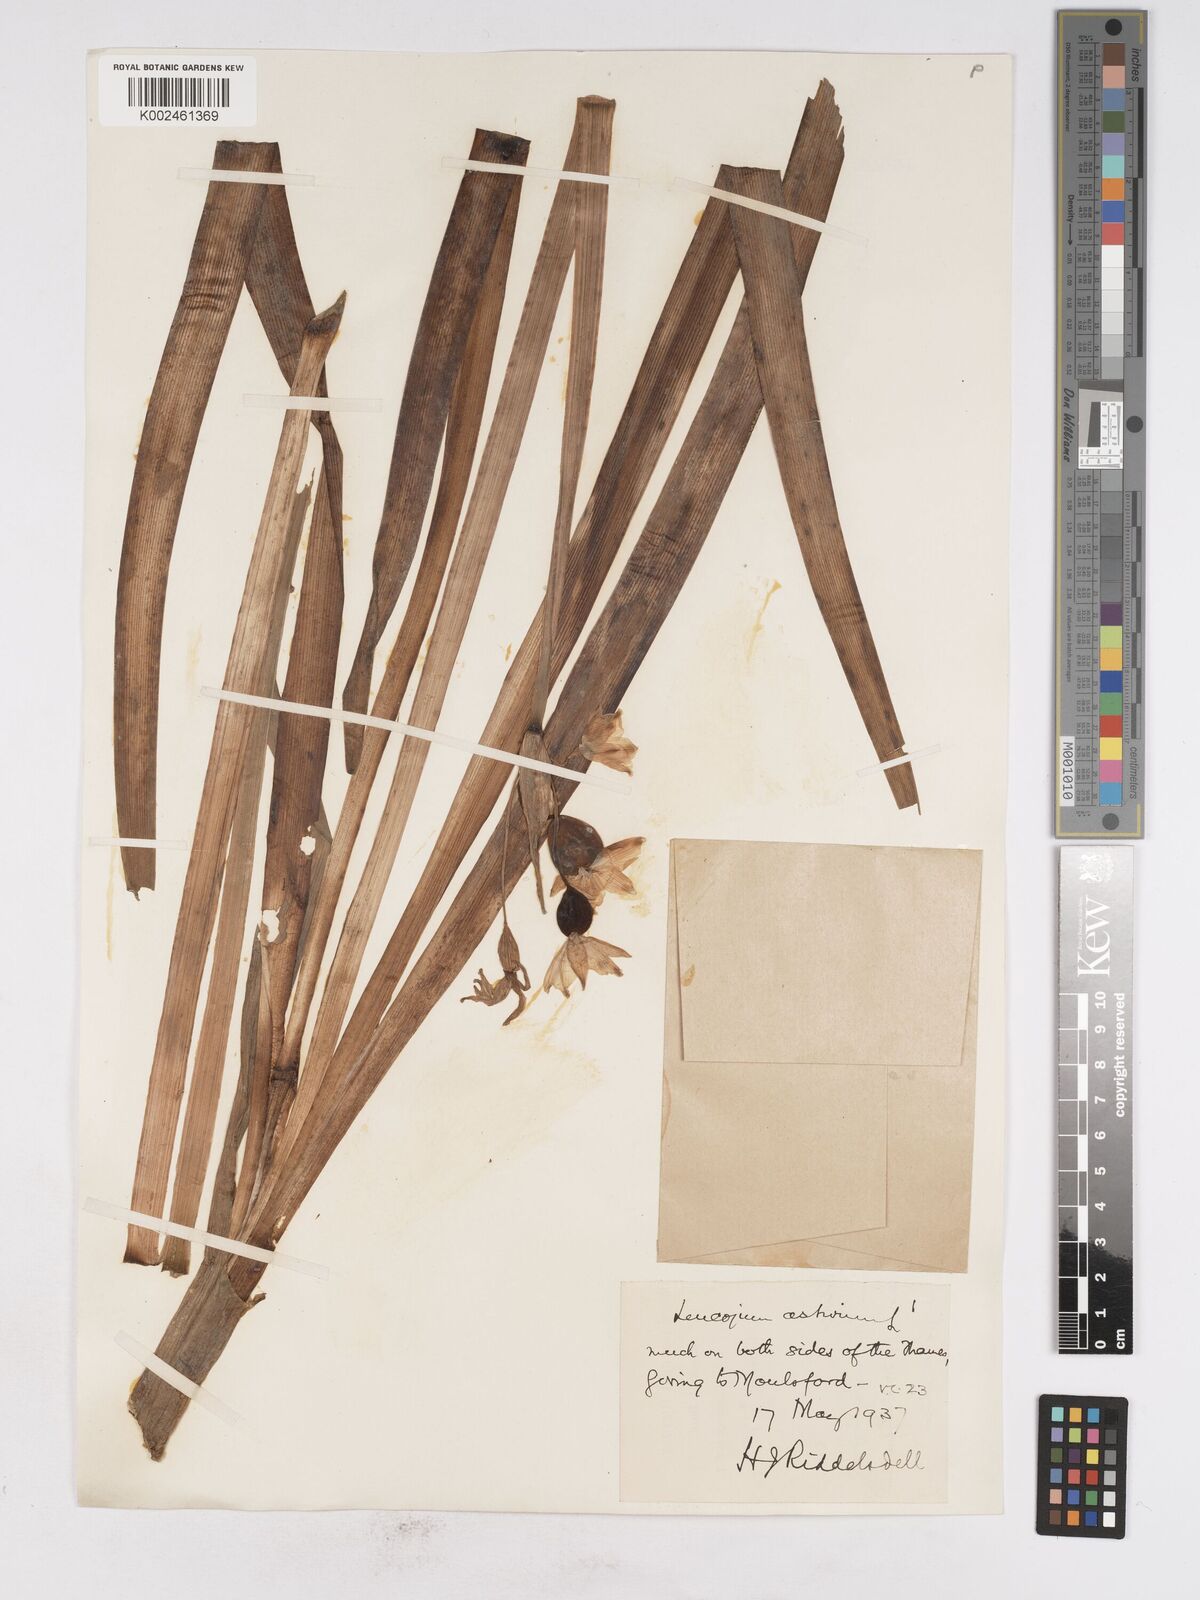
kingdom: Plantae
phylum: Tracheophyta
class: Liliopsida
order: Asparagales
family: Amaryllidaceae
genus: Leucojum
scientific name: Leucojum aestivum
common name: Summer snowflake
